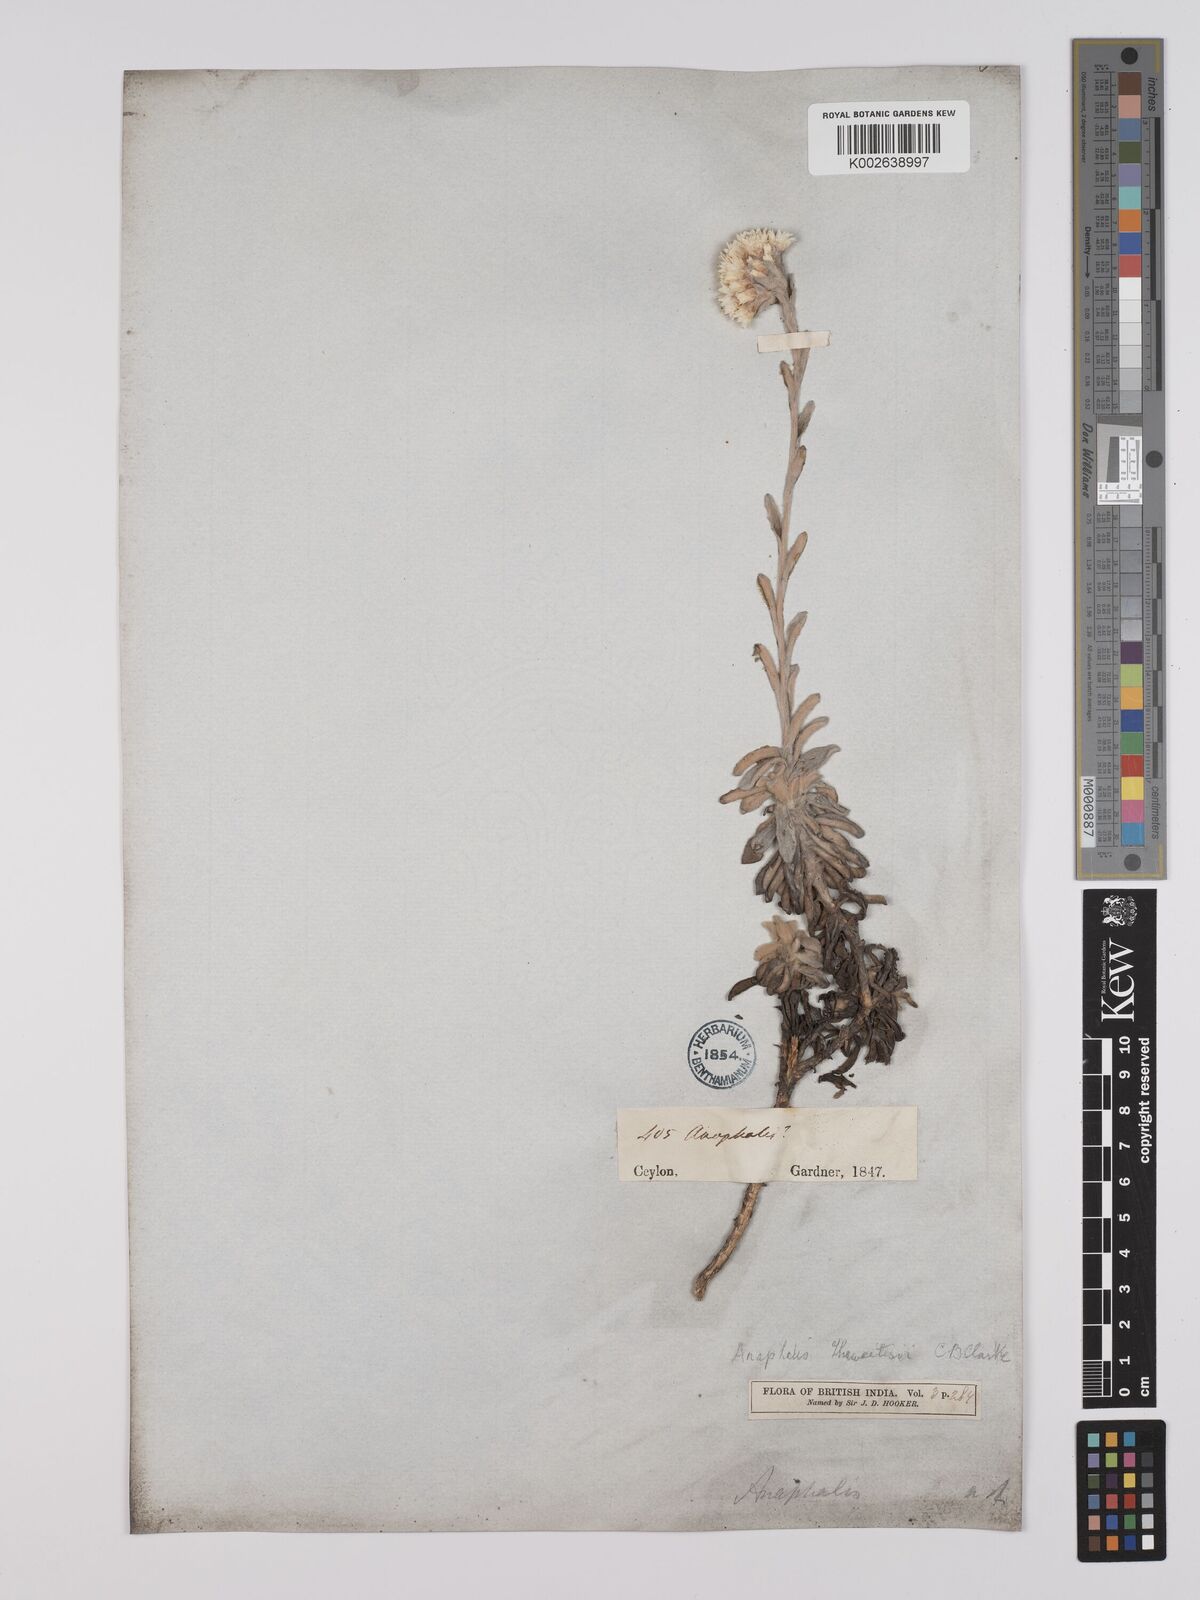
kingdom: Plantae
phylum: Tracheophyta
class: Magnoliopsida
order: Asterales
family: Asteraceae
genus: Anaphalis
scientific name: Anaphalis thwaitesii
